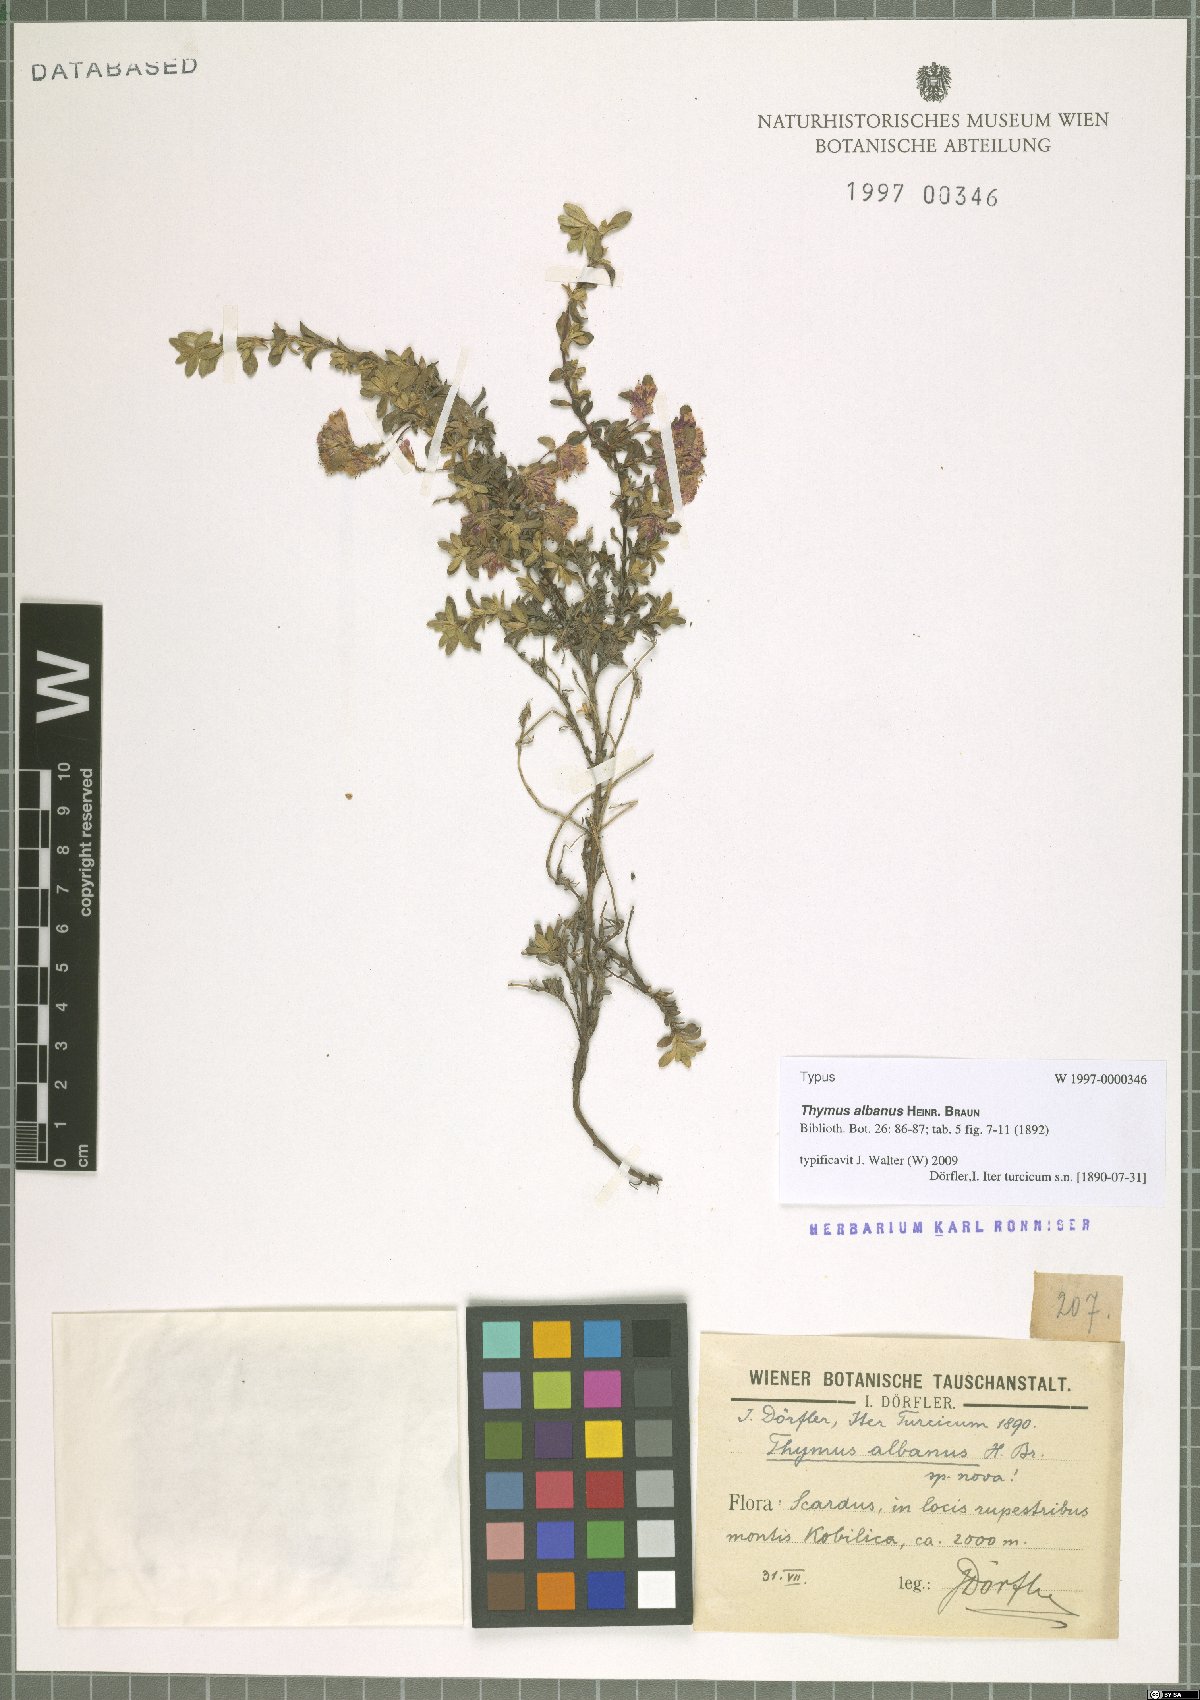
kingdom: Plantae
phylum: Tracheophyta
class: Magnoliopsida
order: Lamiales
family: Lamiaceae
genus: Thymus
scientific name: Thymus albanus
